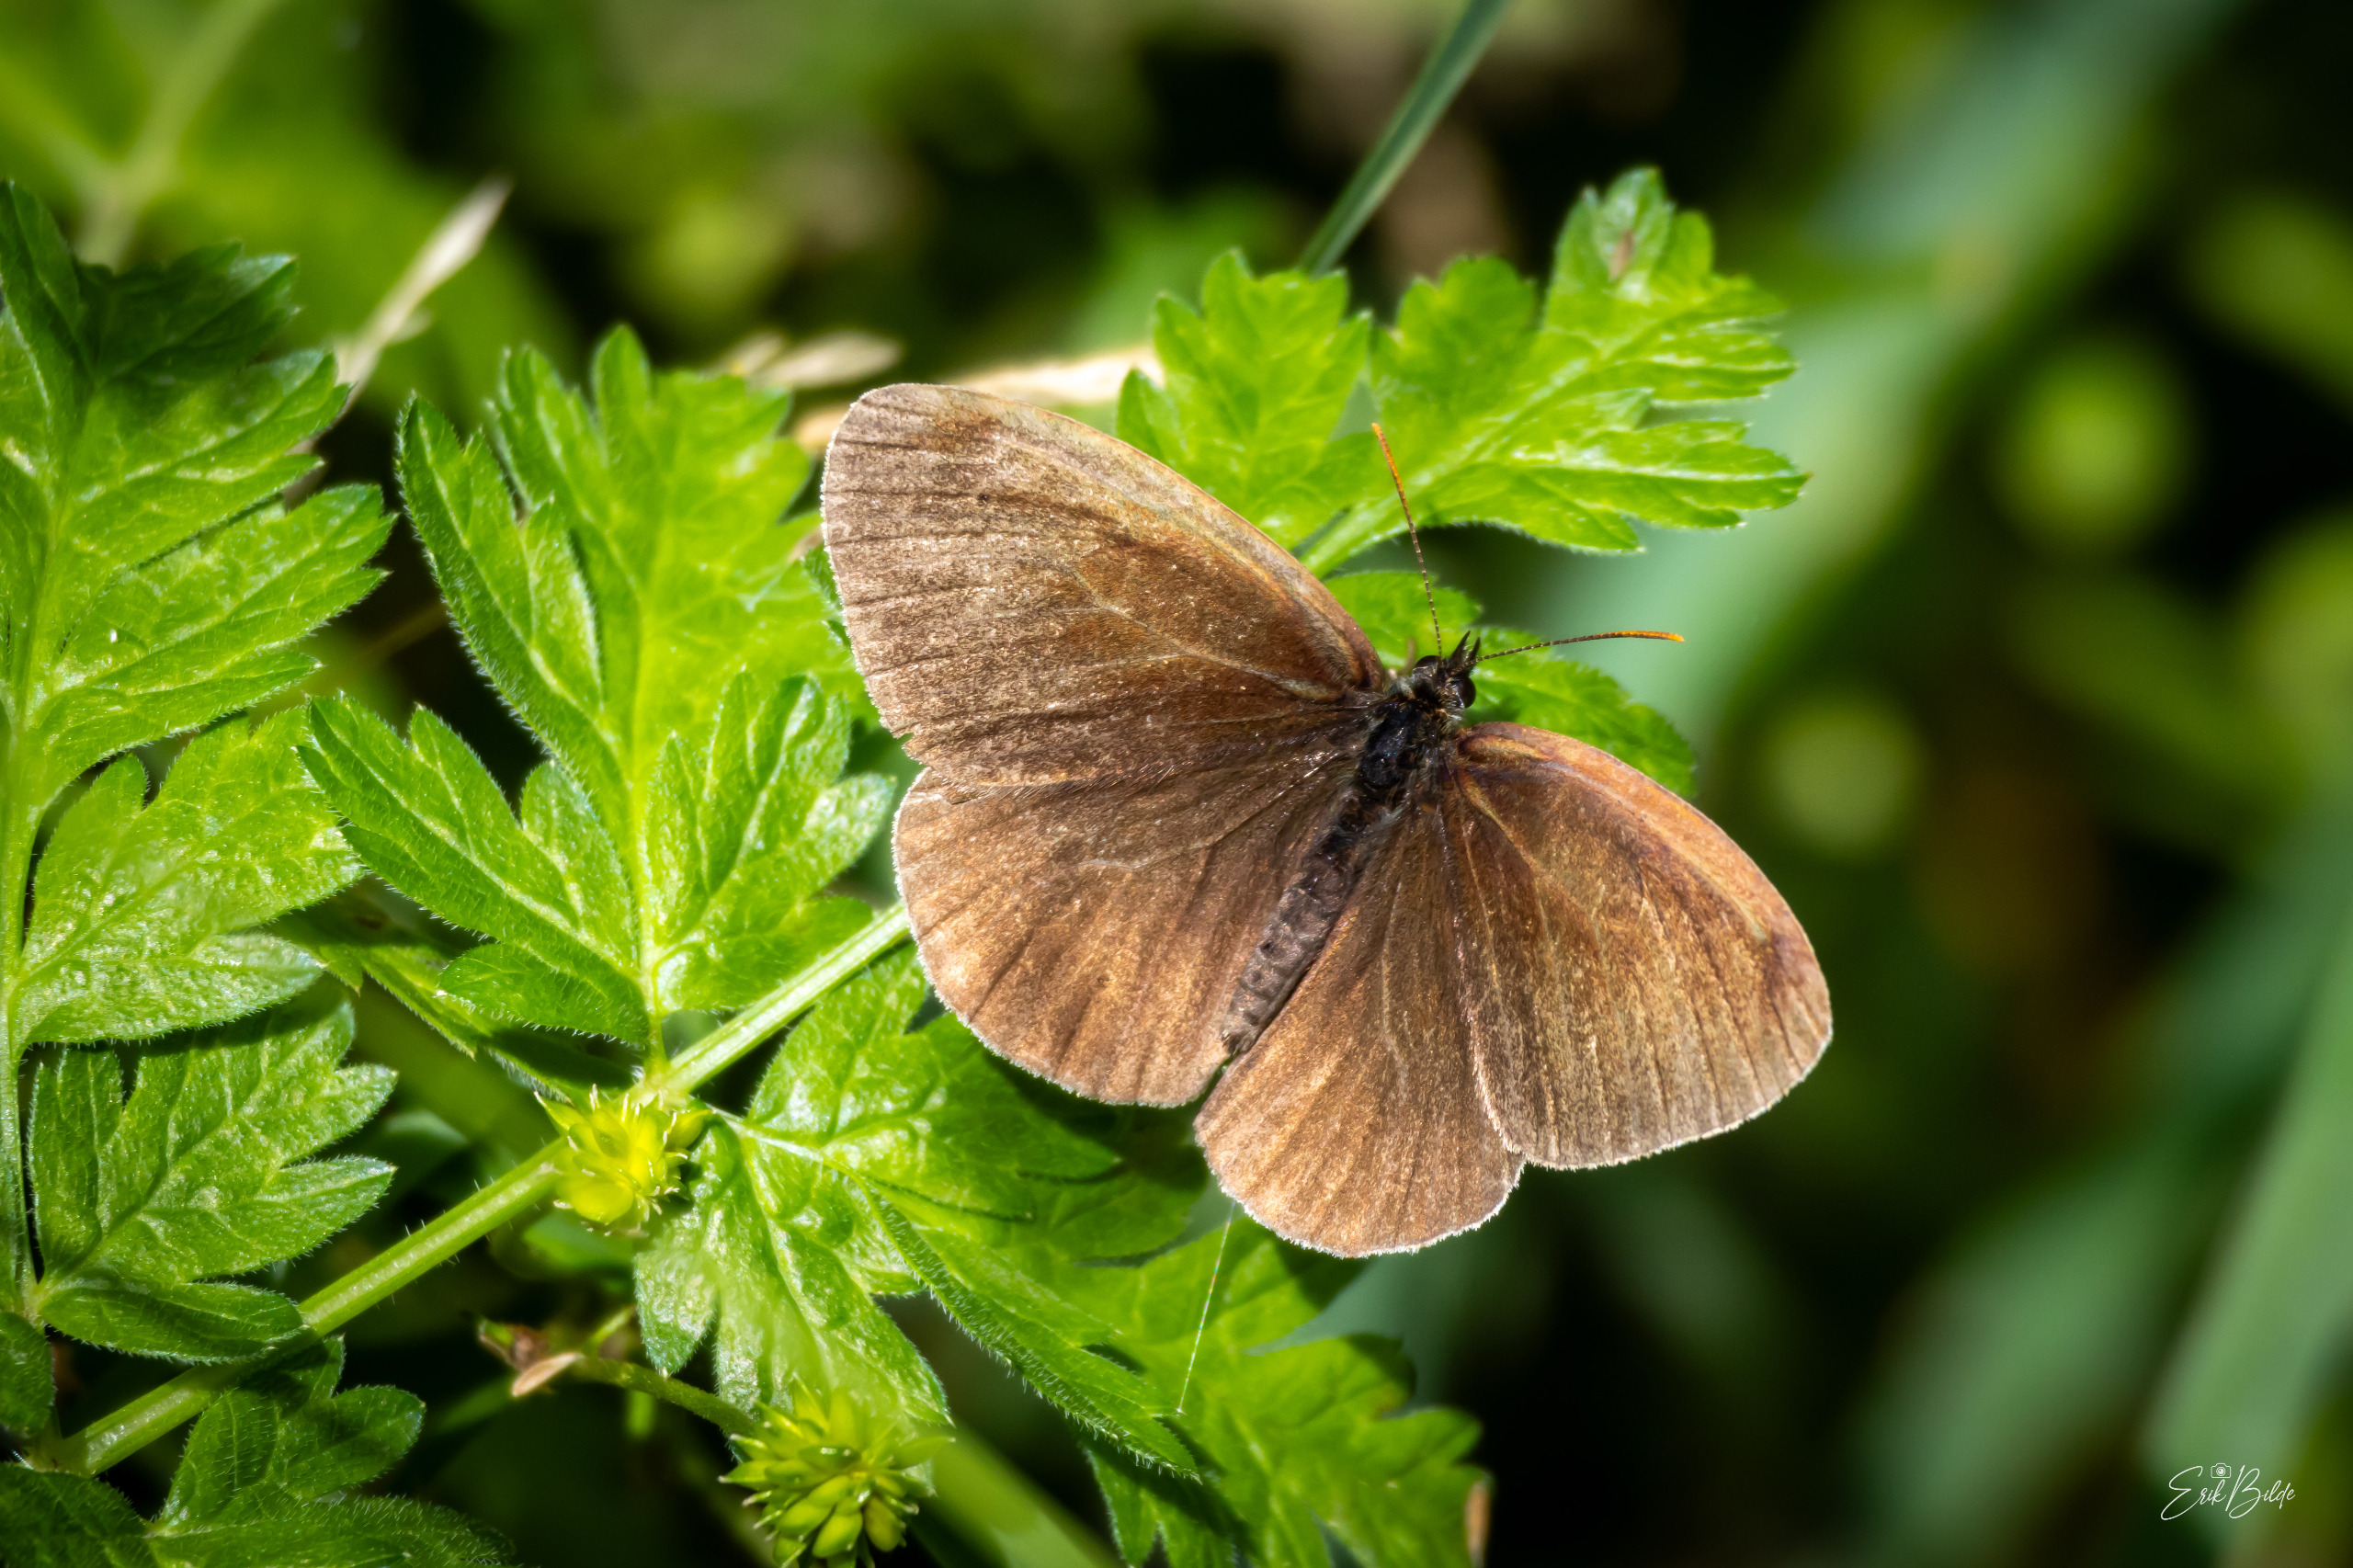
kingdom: Animalia
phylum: Arthropoda
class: Insecta
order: Lepidoptera
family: Nymphalidae
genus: Aphantopus
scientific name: Aphantopus hyperantus
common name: Engrandøje
